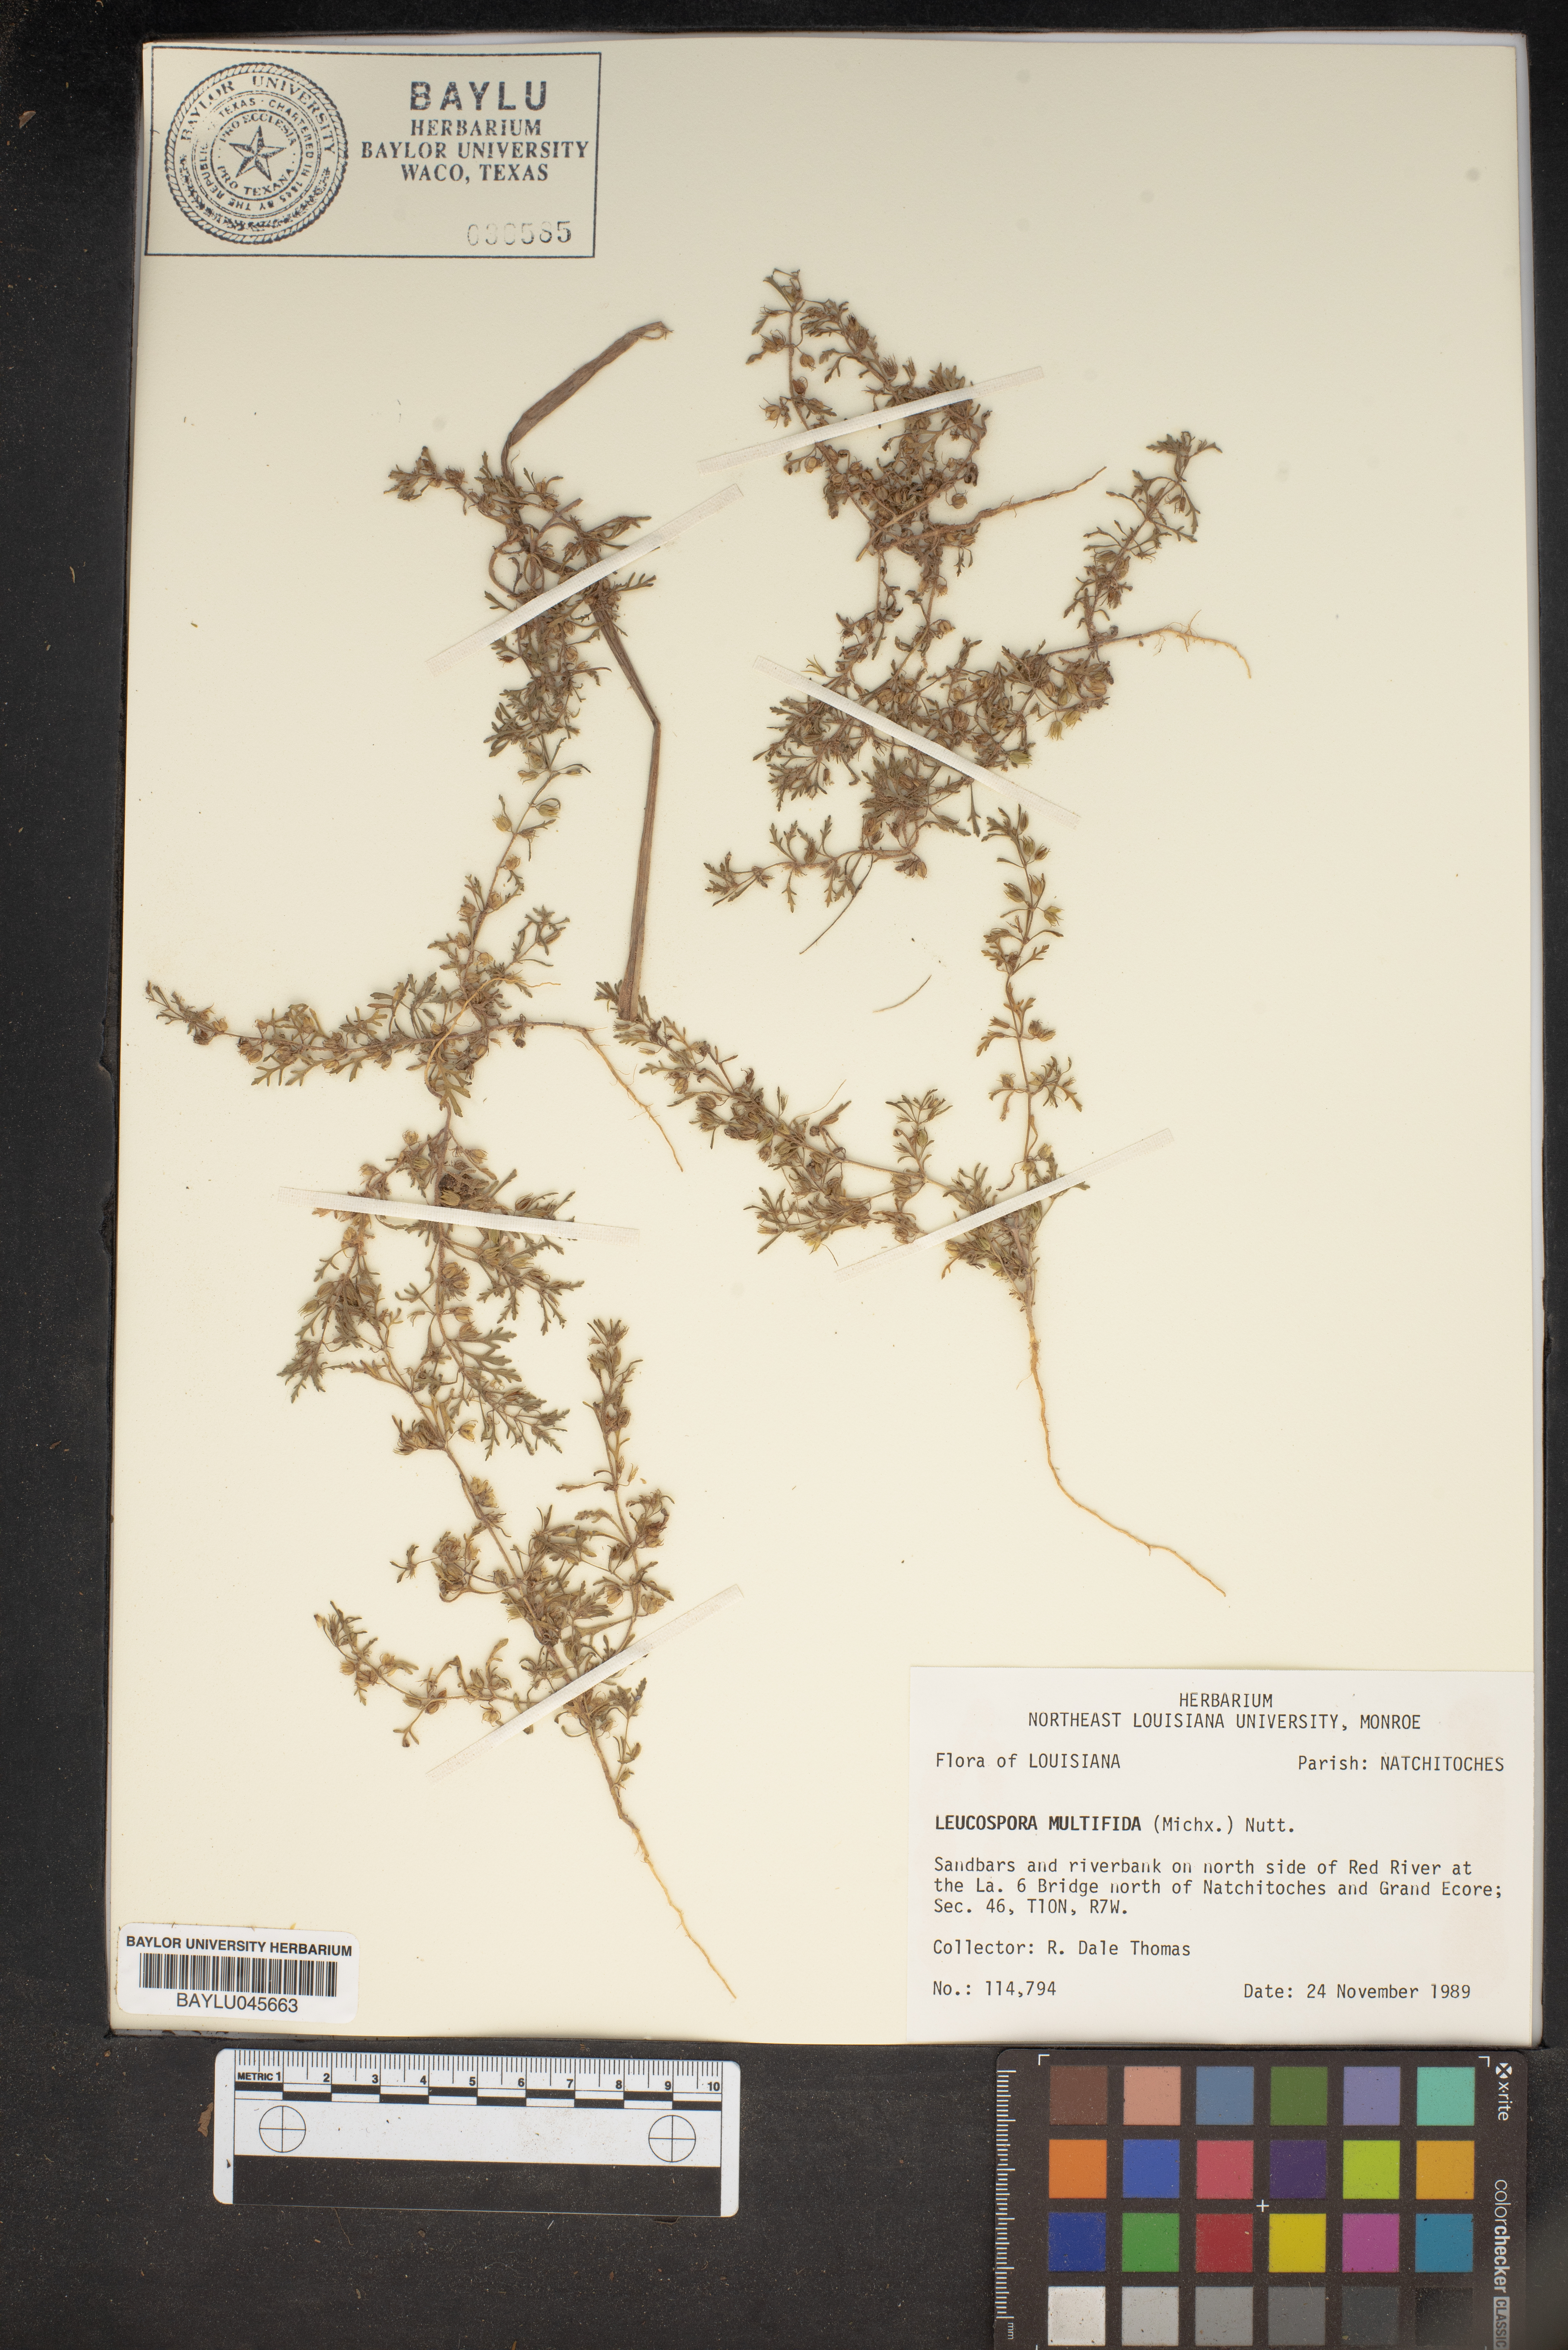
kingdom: Plantae
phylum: Tracheophyta
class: Magnoliopsida
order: Lamiales
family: Plantaginaceae
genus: Leucospora
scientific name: Leucospora multifida
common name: Narrow-leaf paleseed
